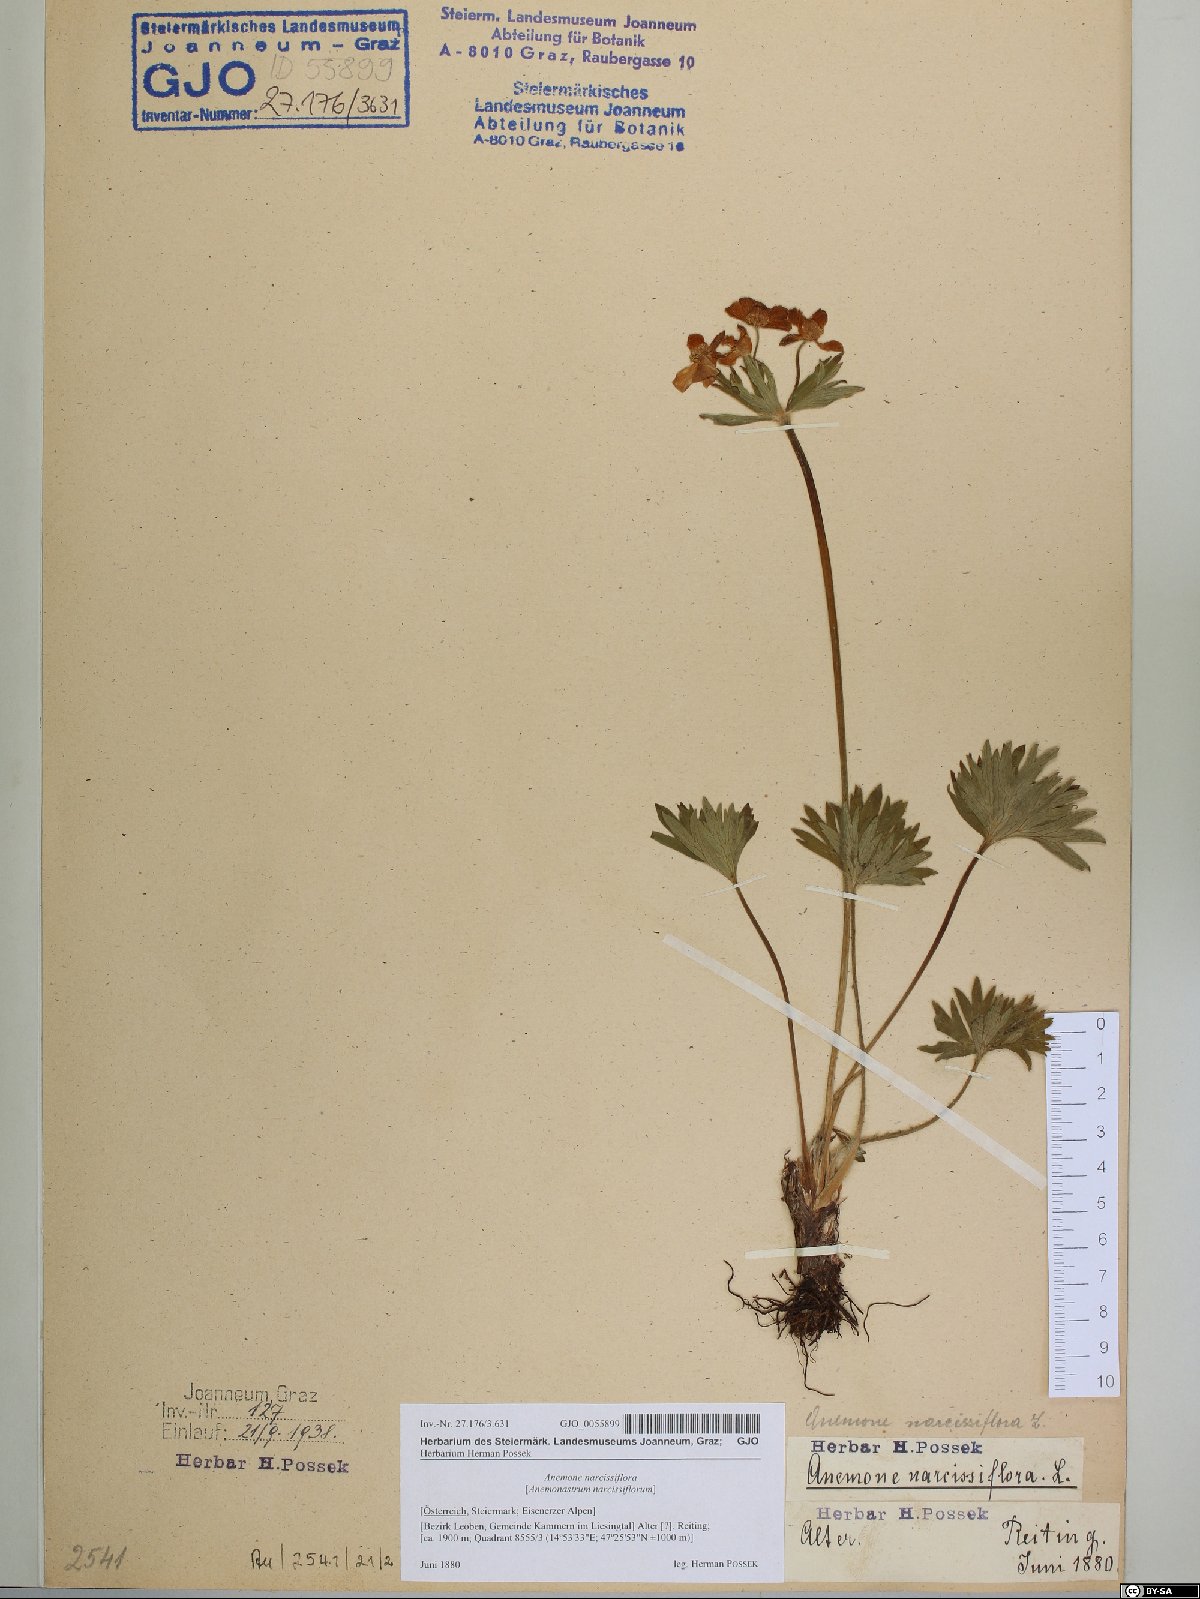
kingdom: Plantae
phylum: Tracheophyta
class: Magnoliopsida
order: Ranunculales
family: Ranunculaceae
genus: Anemonastrum
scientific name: Anemonastrum narcissiflorum
